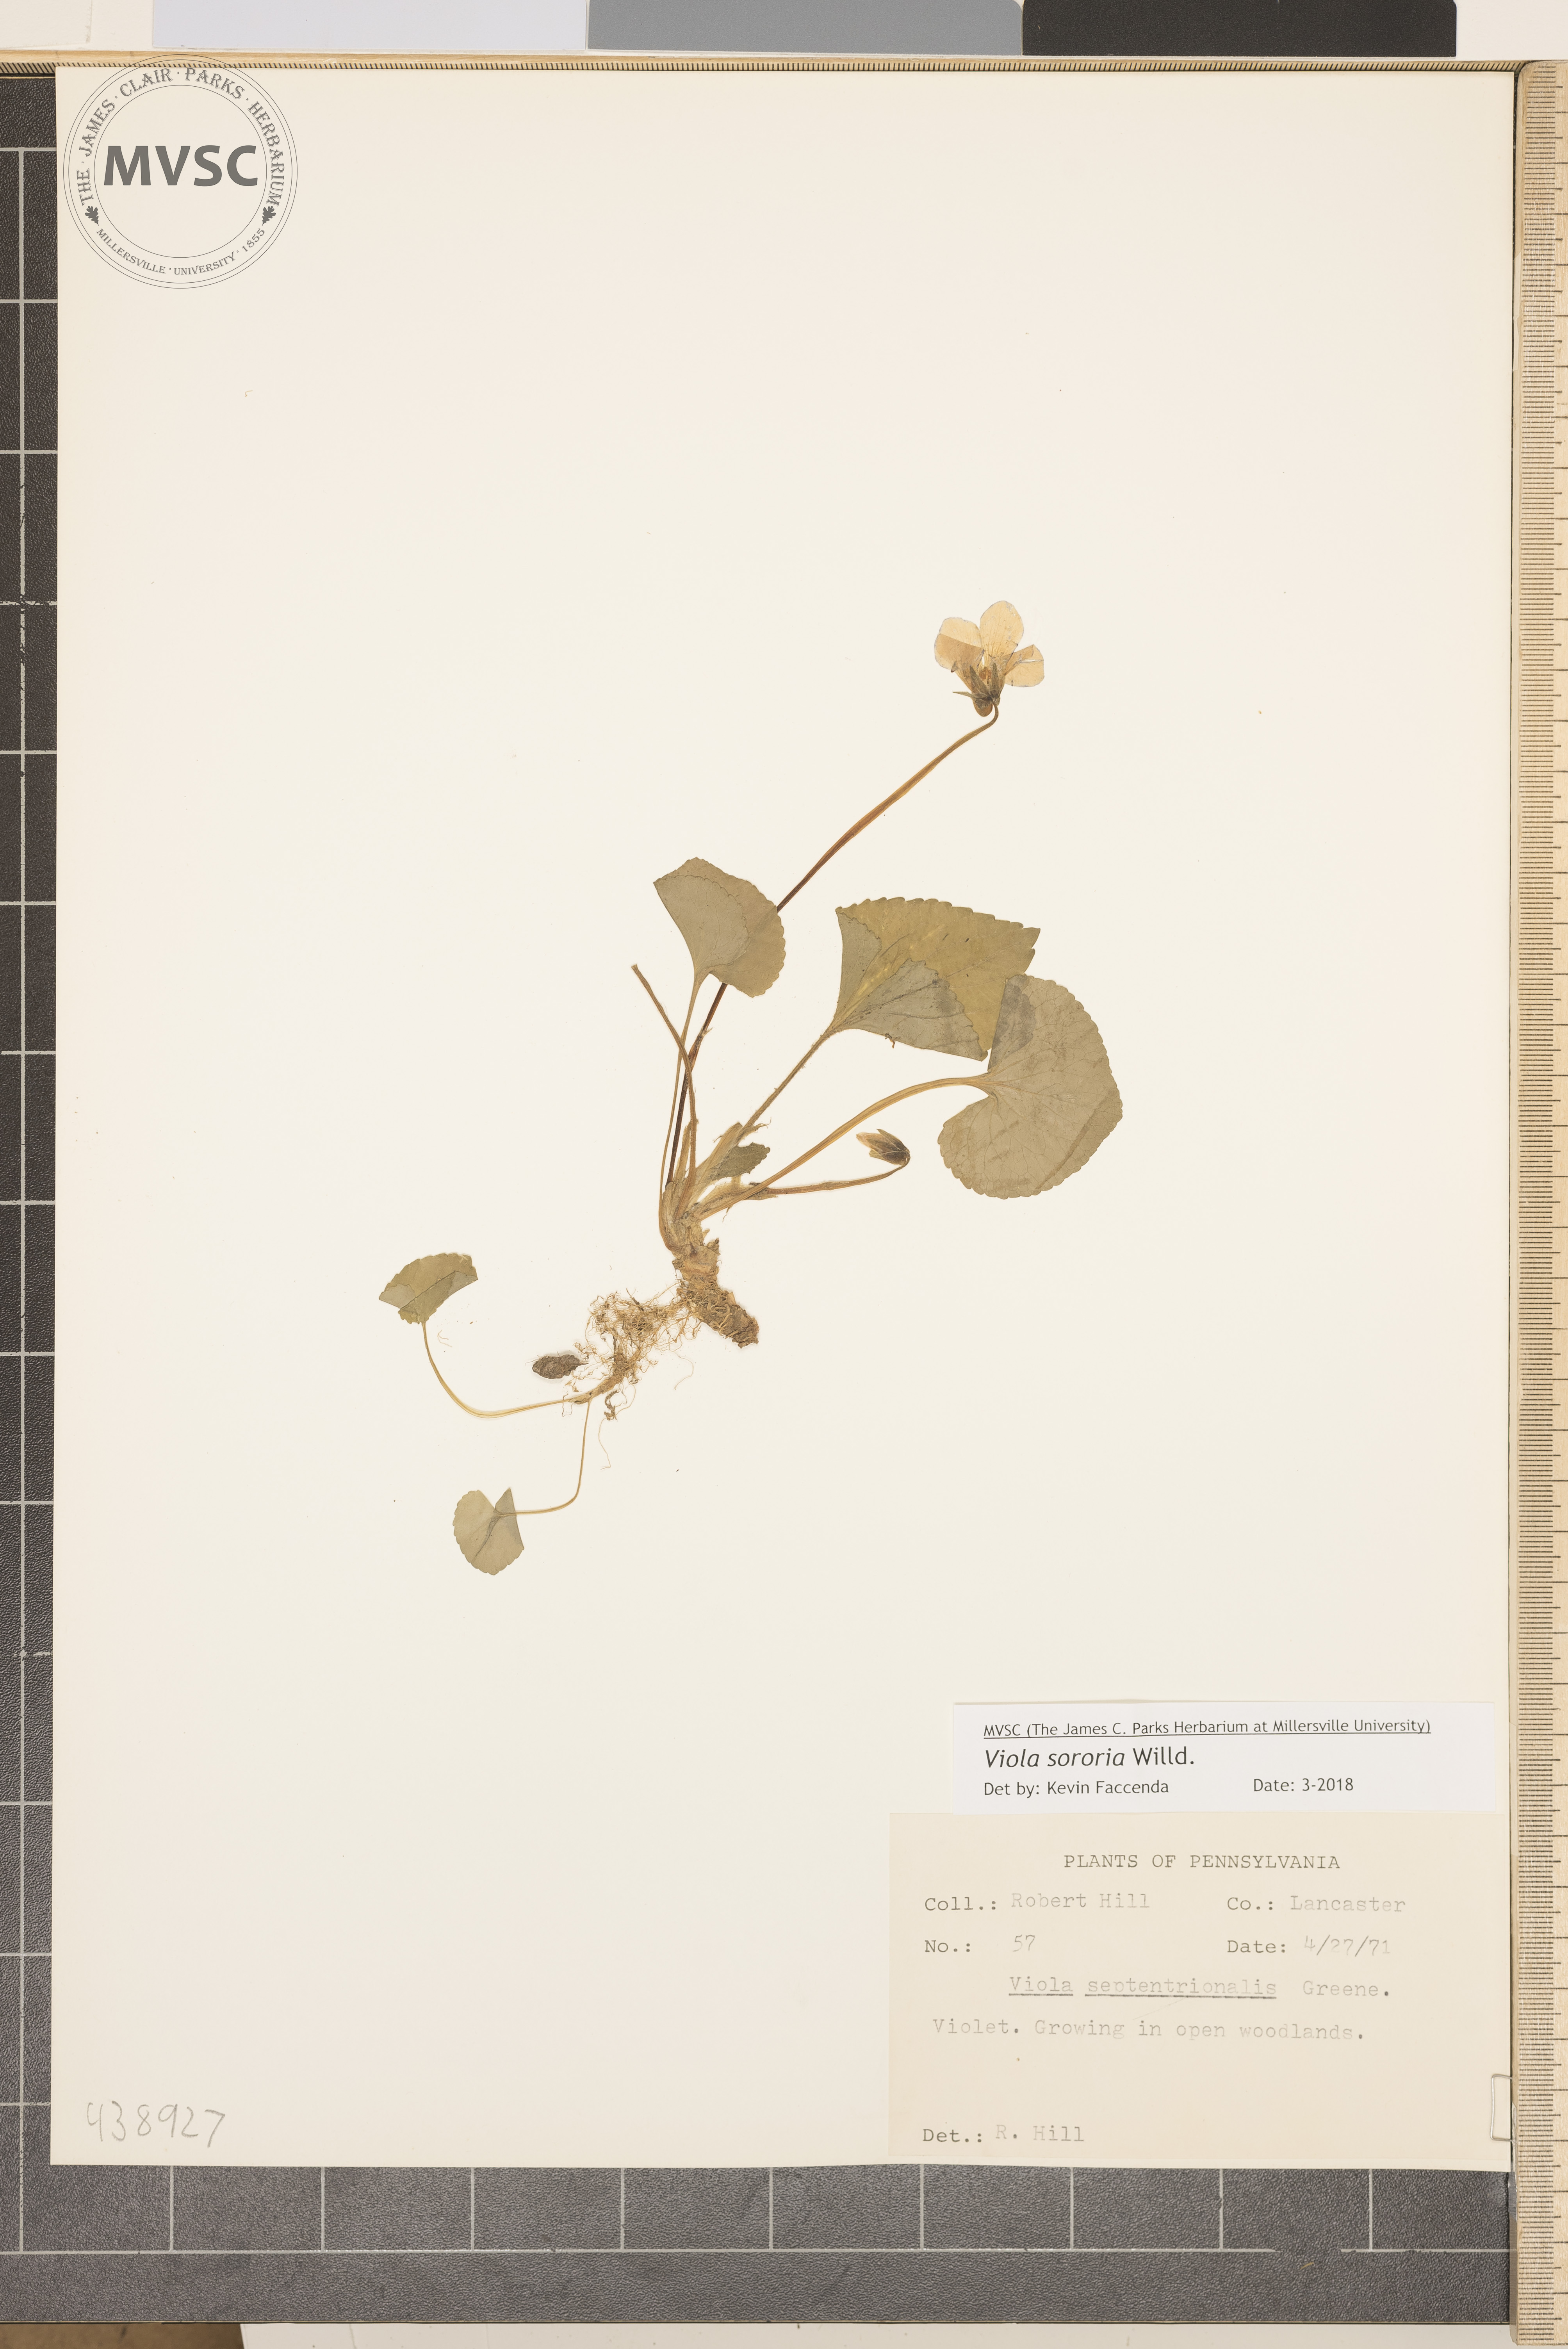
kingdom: Plantae
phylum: Tracheophyta
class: Magnoliopsida
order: Malpighiales
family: Violaceae
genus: Viola
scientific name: Viola sororia
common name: Violet
